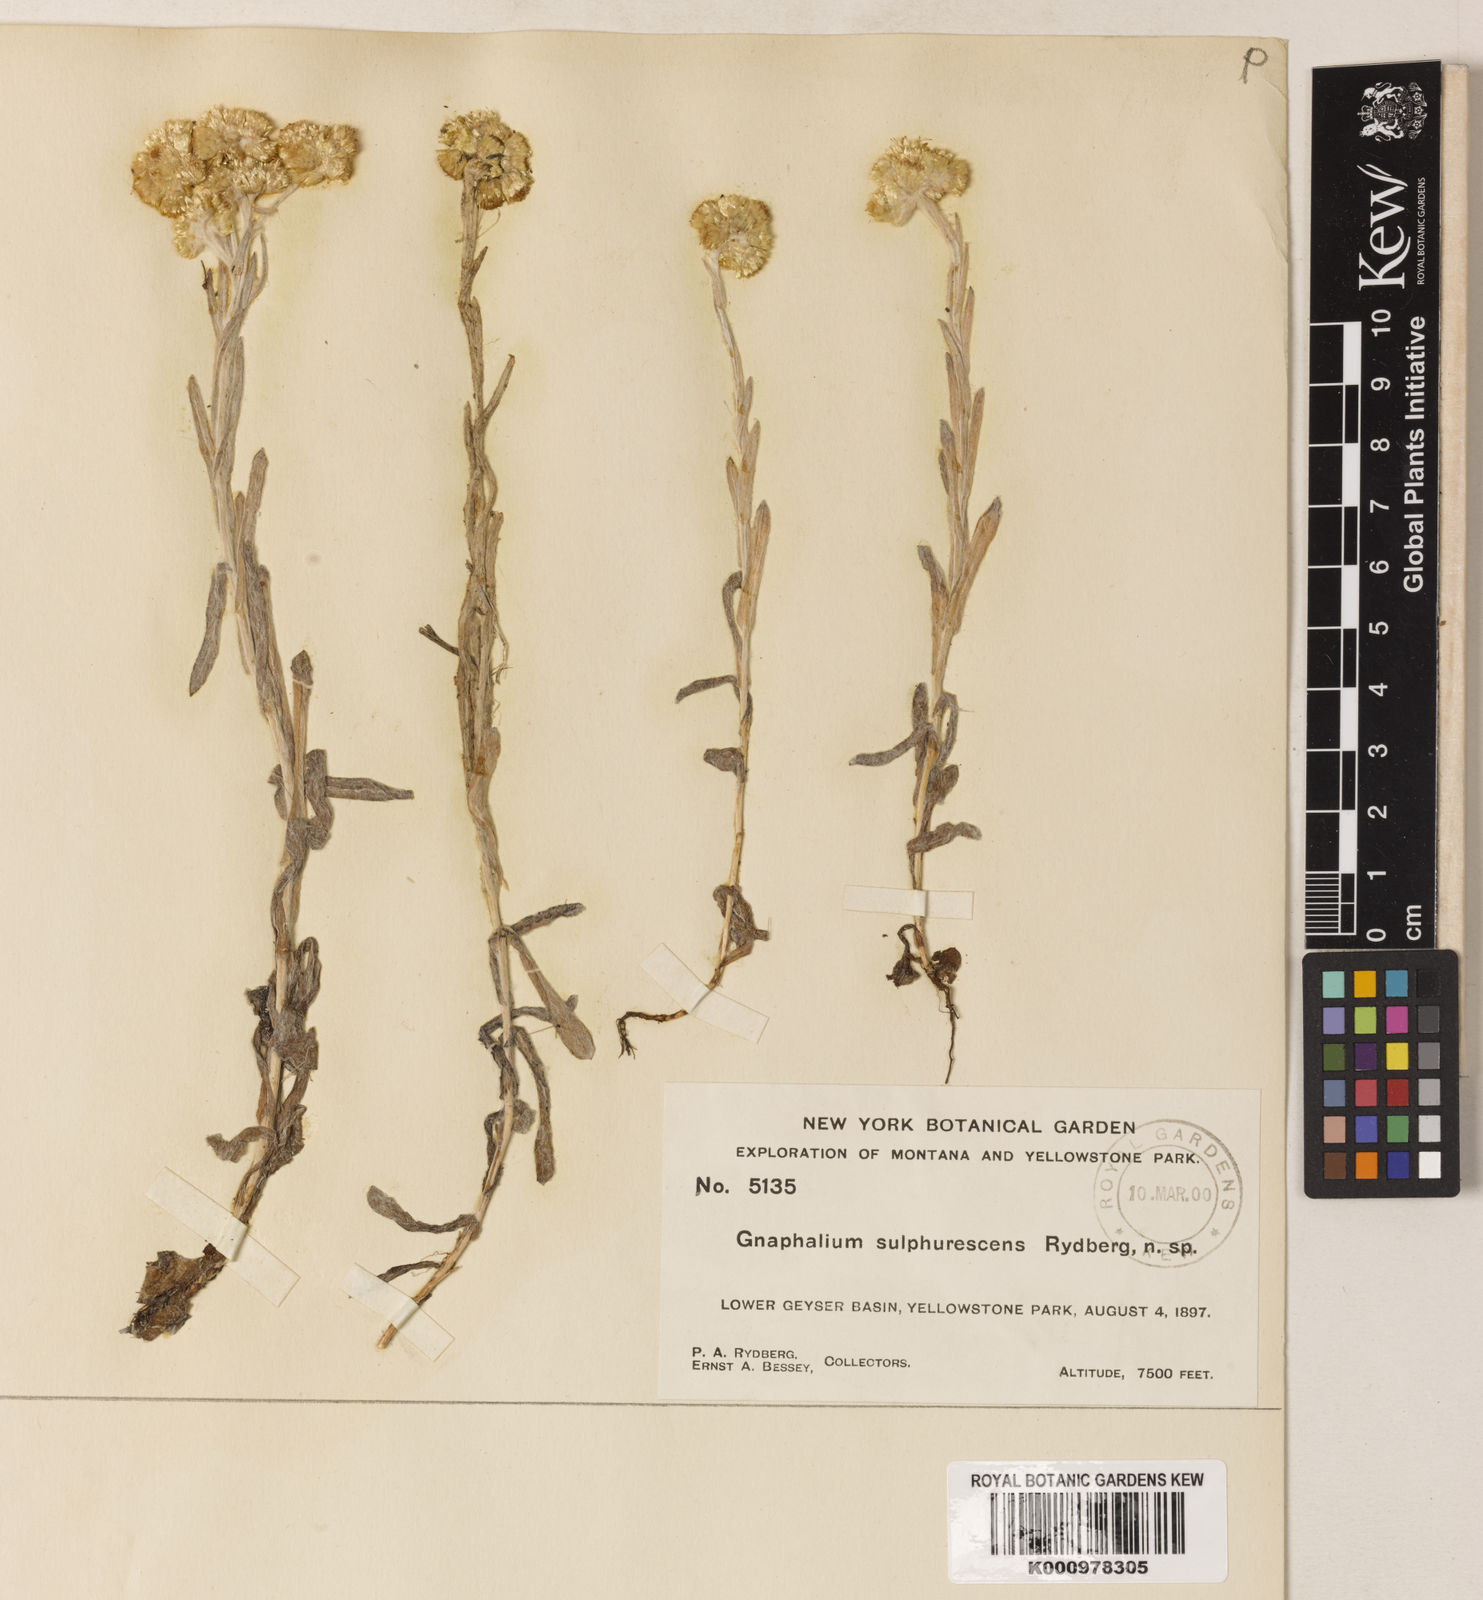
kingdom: Plantae
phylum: Tracheophyta
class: Magnoliopsida
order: Asterales
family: Asteraceae
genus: Pseudognaphalium
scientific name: Pseudognaphalium stramineum
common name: Cotton-batting-plant
